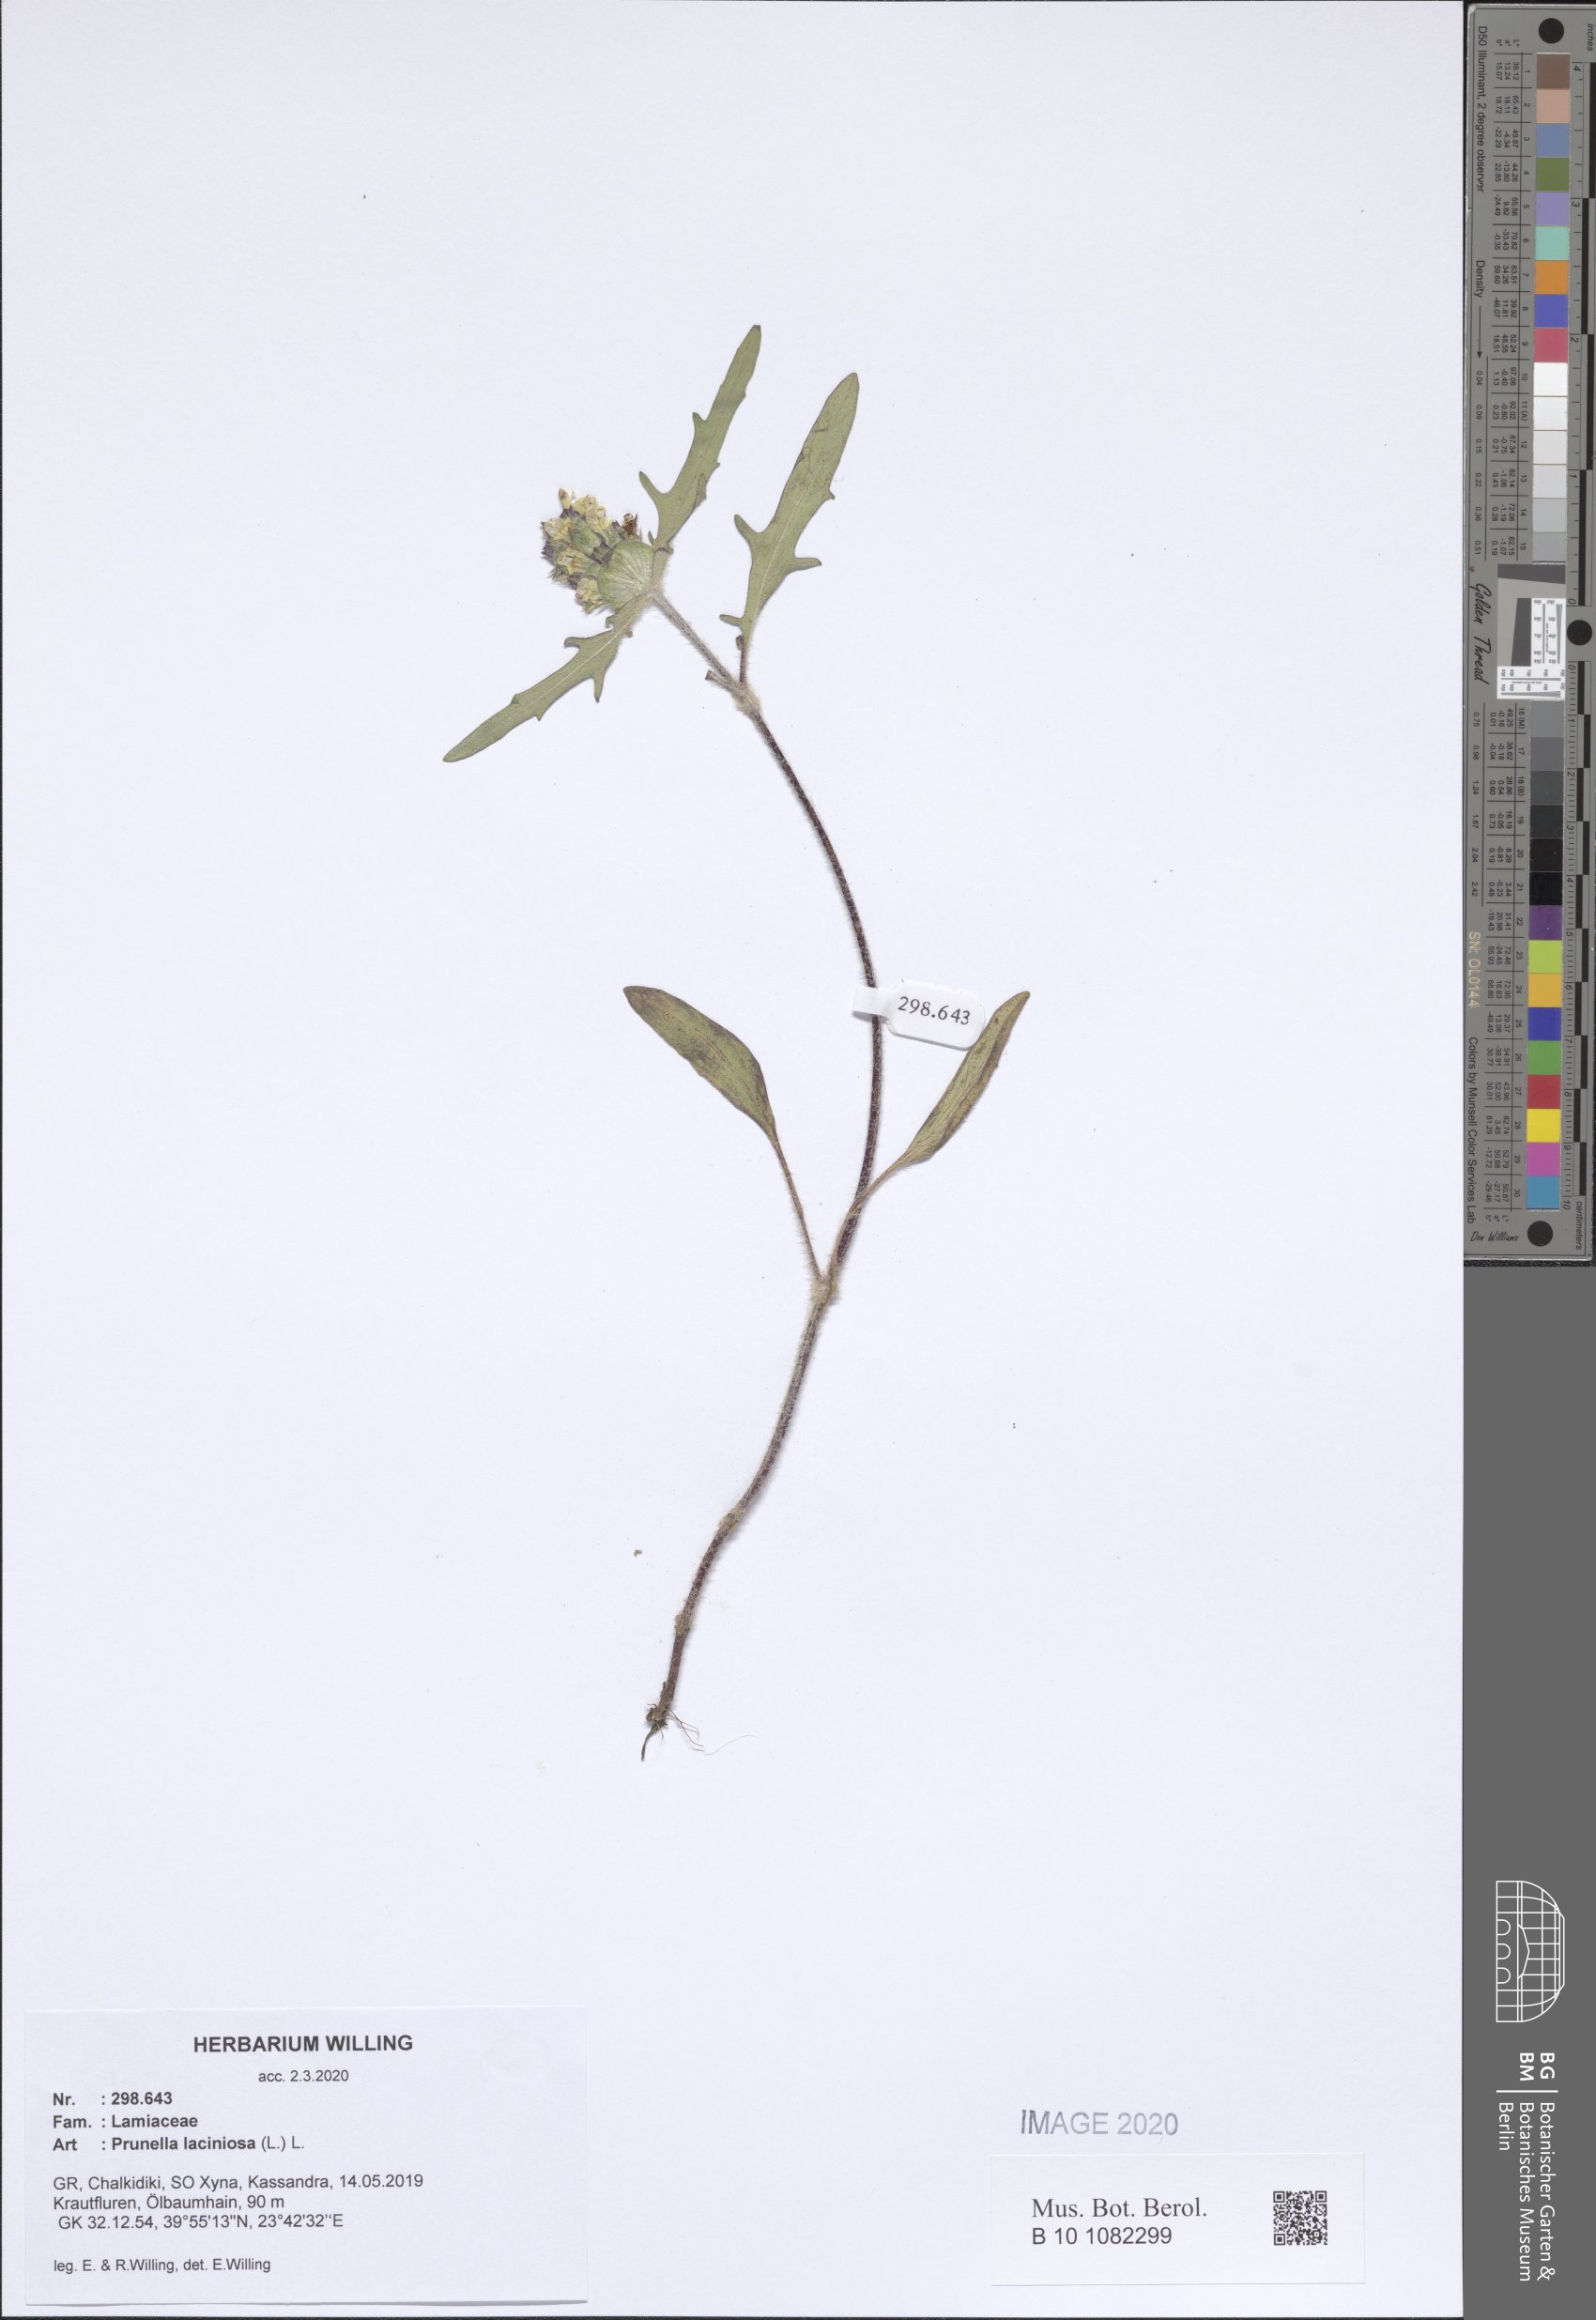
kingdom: Plantae
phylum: Tracheophyta
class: Magnoliopsida
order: Lamiales
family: Lamiaceae
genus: Prunella
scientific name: Prunella laciniata
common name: Cut-leaved selfheal
